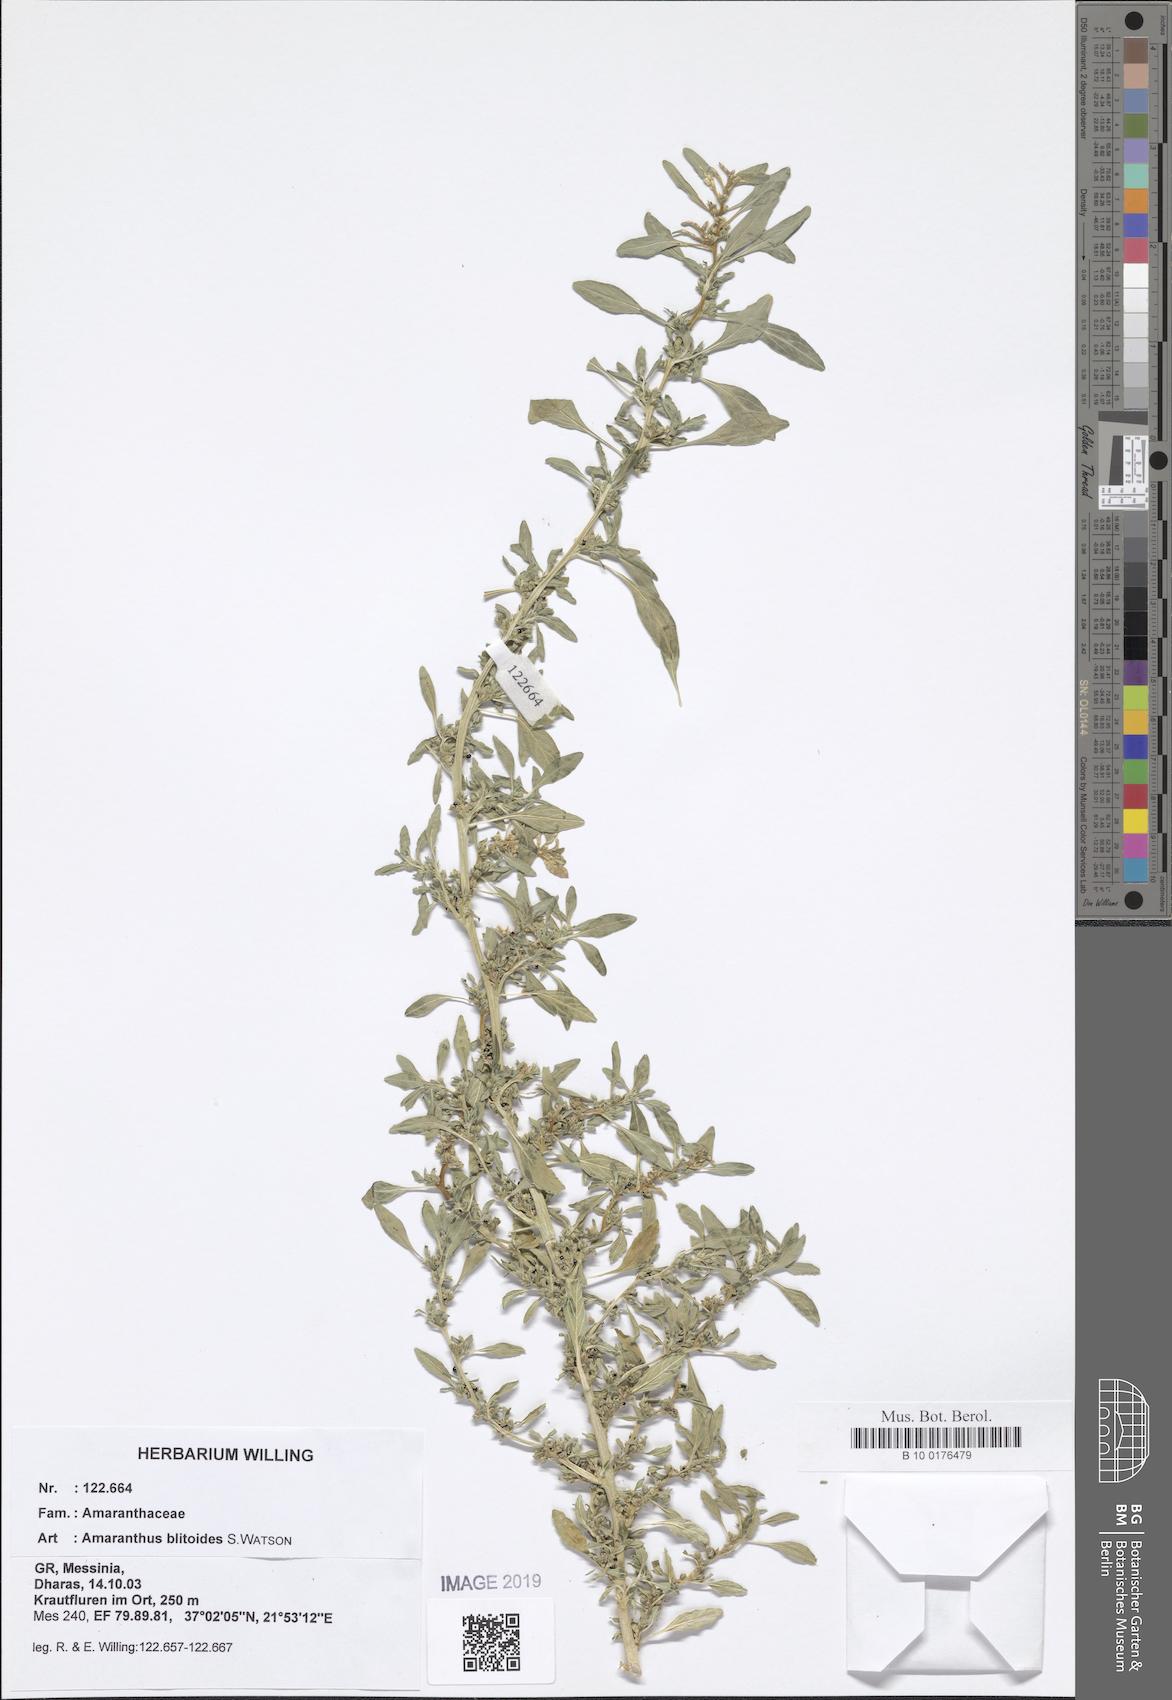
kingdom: Plantae
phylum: Tracheophyta
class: Magnoliopsida
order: Caryophyllales
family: Amaranthaceae
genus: Amaranthus
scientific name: Amaranthus blitoides
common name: Prostrate pigweed
